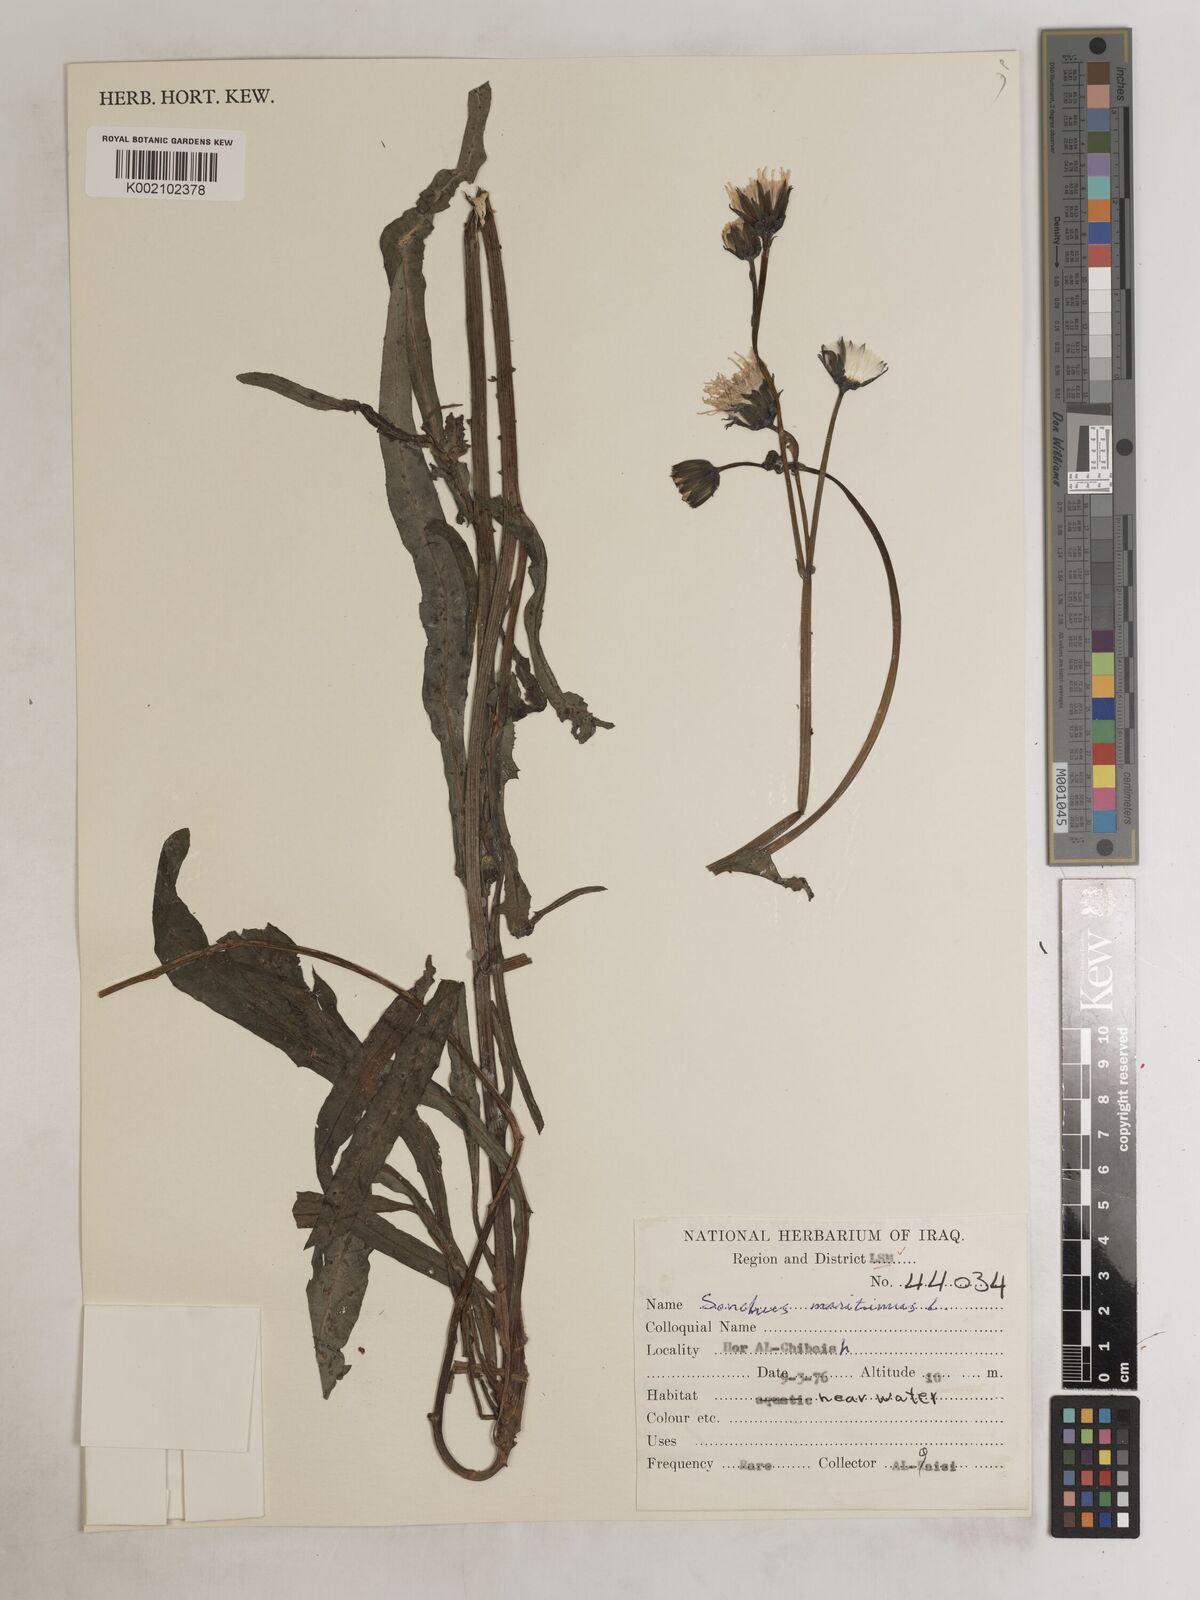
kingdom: Plantae
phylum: Tracheophyta
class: Magnoliopsida
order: Asterales
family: Asteraceae
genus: Sonchus
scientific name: Sonchus maritimus
